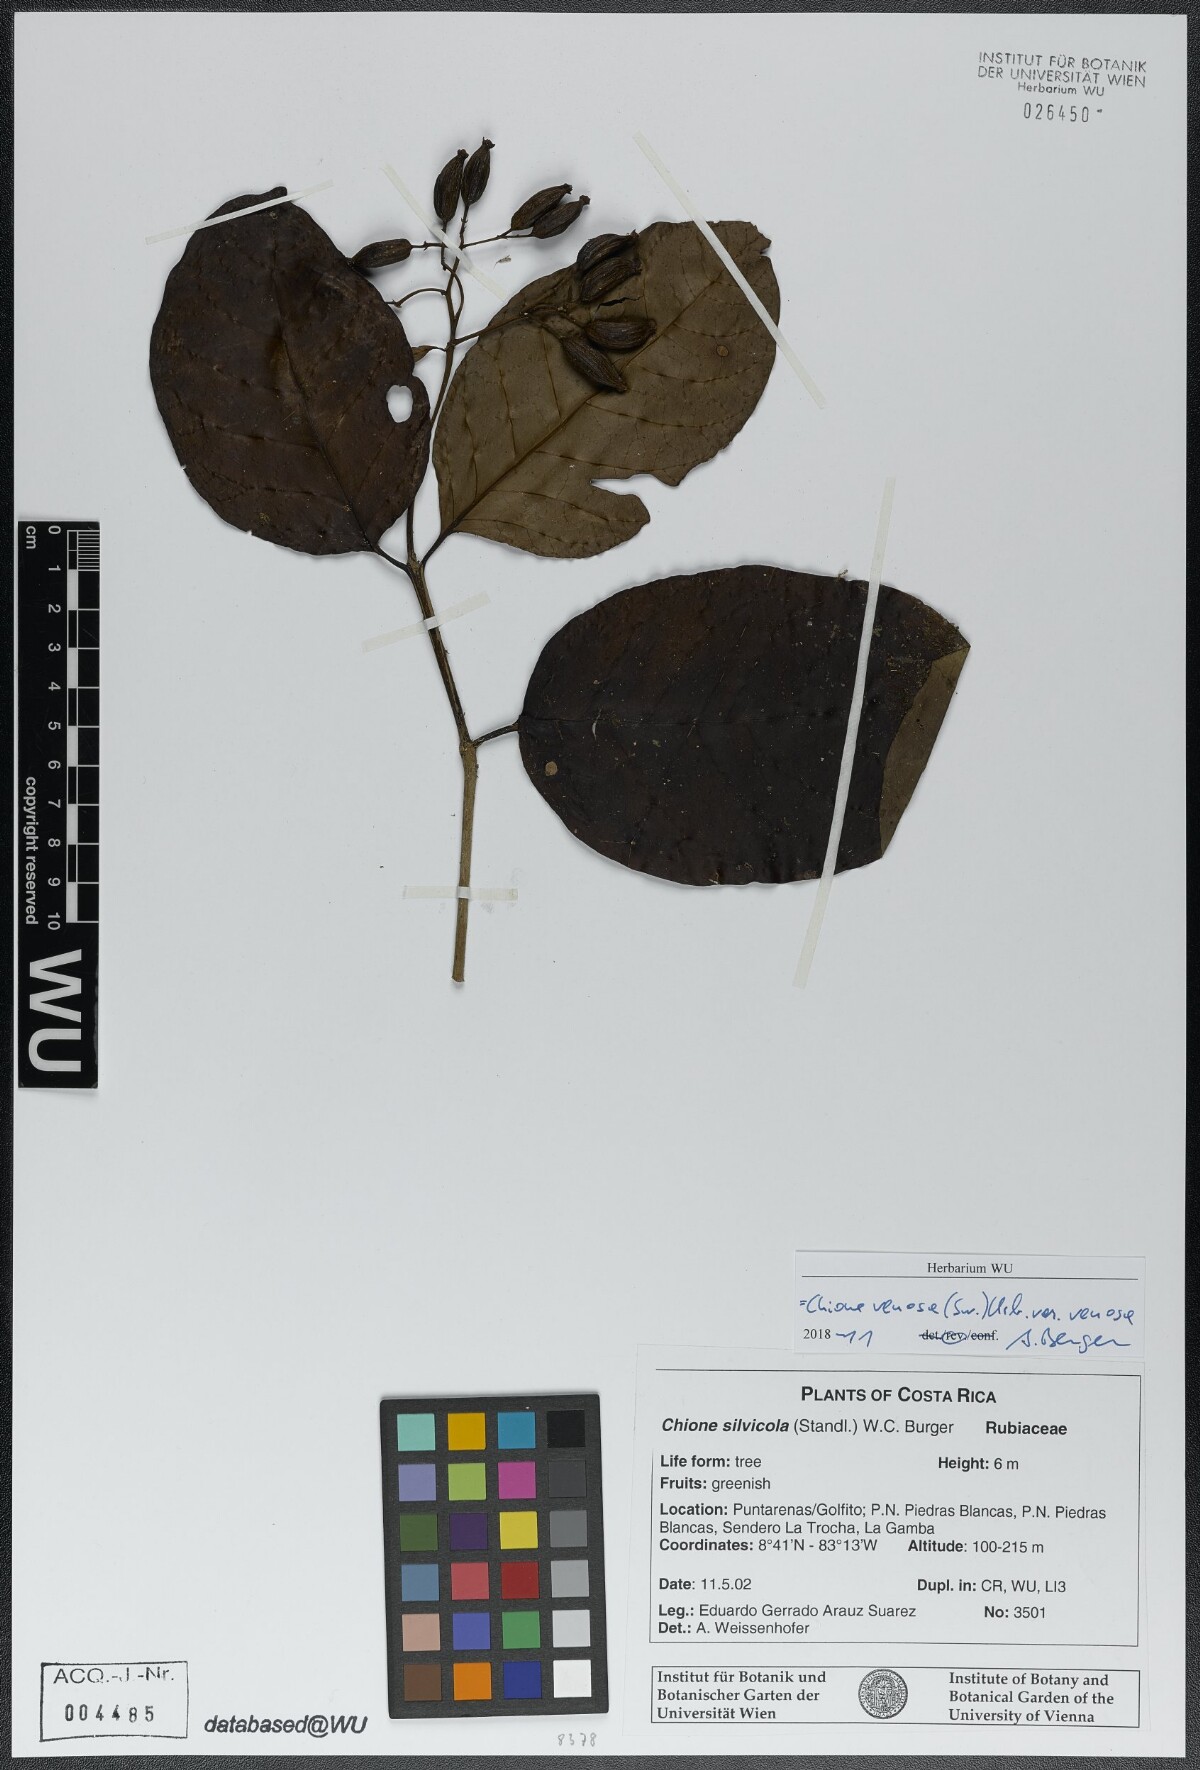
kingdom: Plantae
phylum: Tracheophyta
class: Magnoliopsida
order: Gentianales
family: Rubiaceae
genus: Chione
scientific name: Chione venosa
